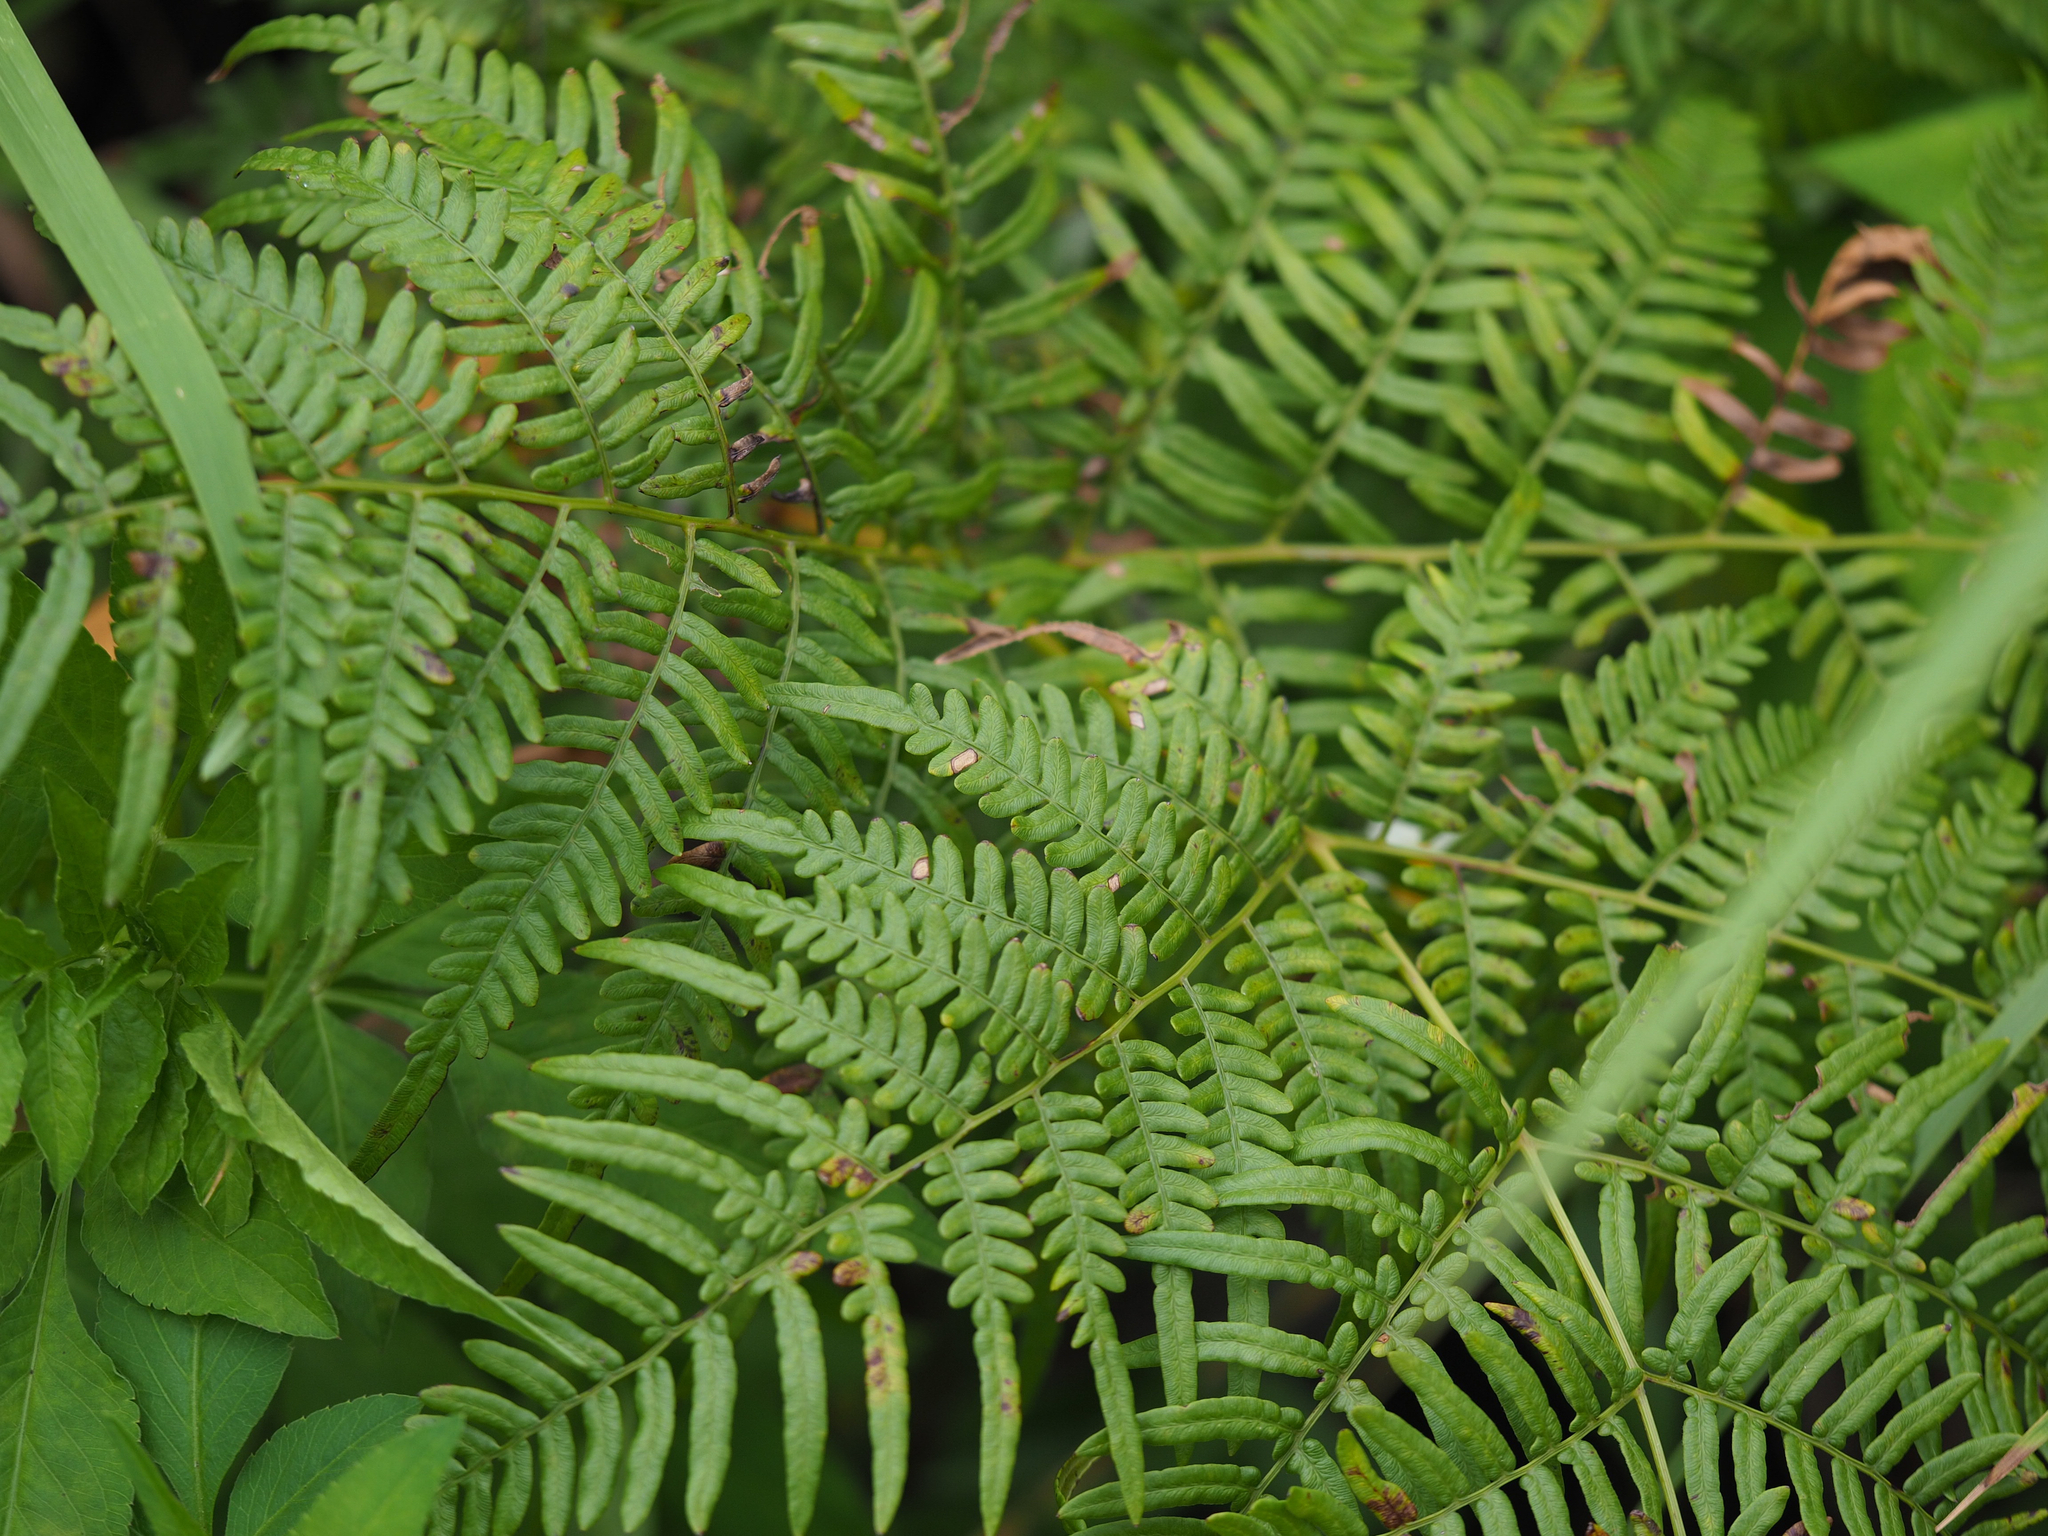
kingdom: Plantae
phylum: Tracheophyta
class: Polypodiopsida
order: Polypodiales
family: Dennstaedtiaceae
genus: Pteridium
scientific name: Pteridium aquilinum
